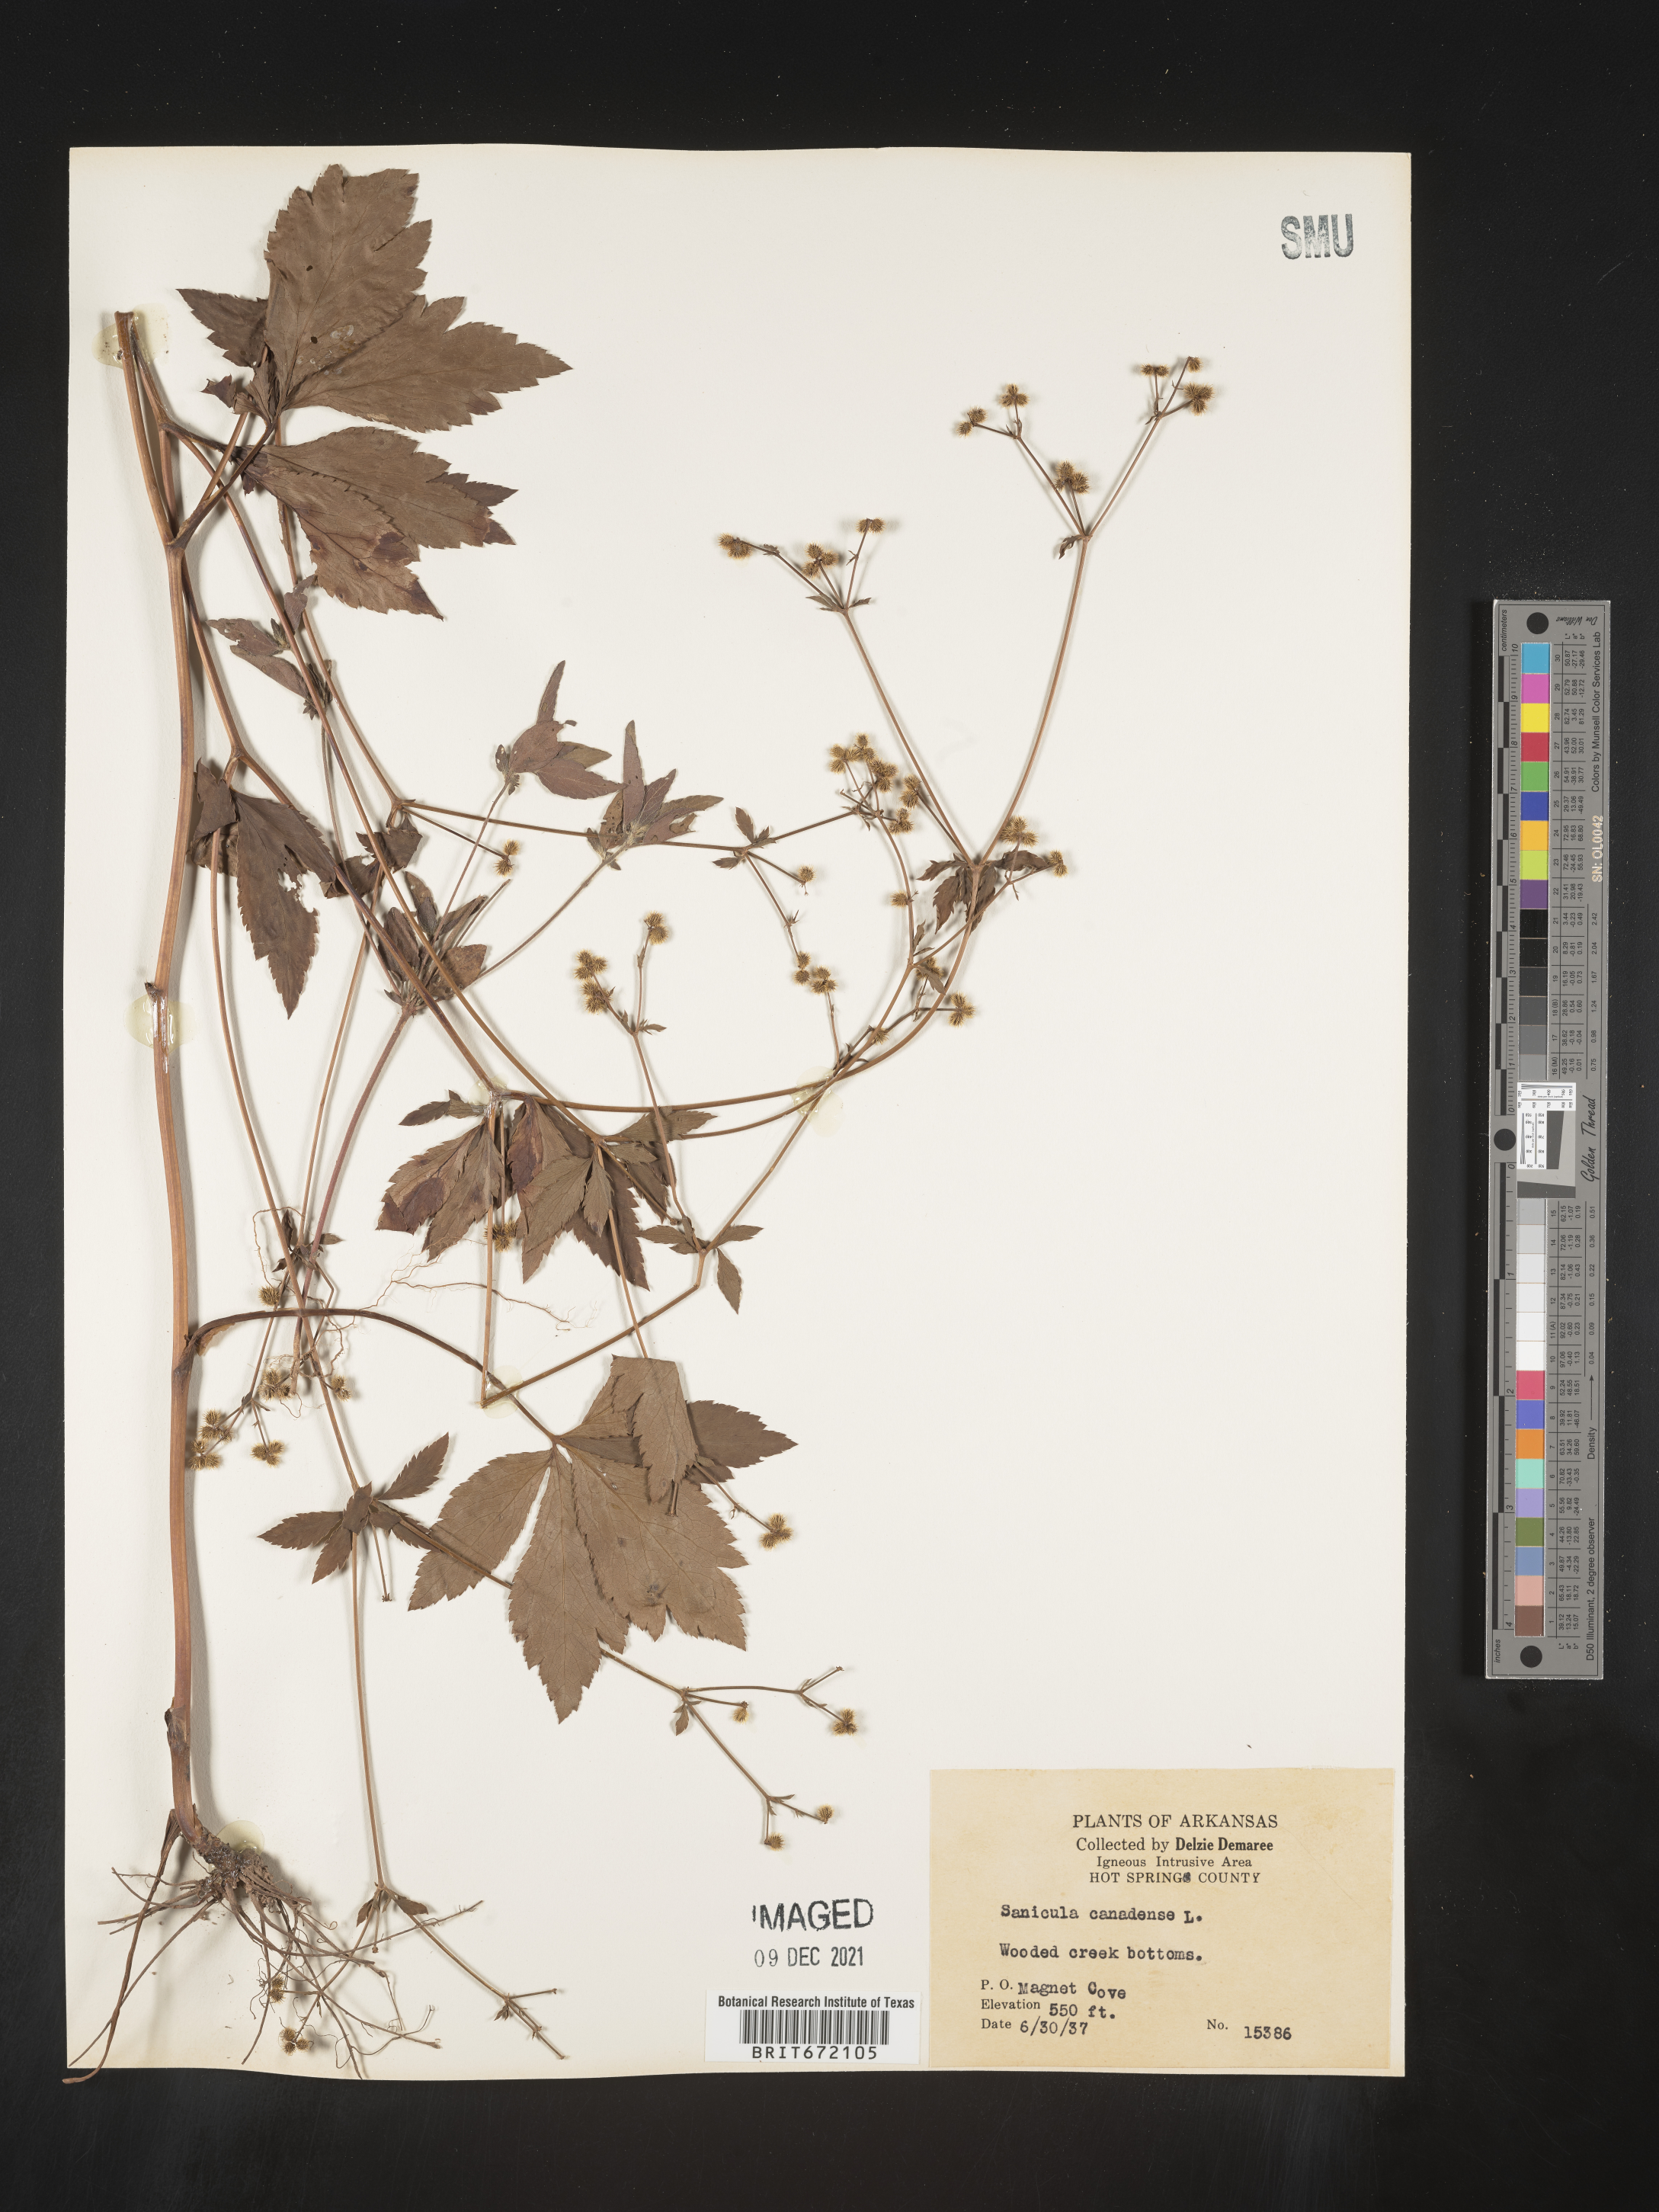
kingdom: Plantae
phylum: Tracheophyta
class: Magnoliopsida
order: Apiales
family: Apiaceae
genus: Sanicula
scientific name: Sanicula canadensis
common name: Canada sanicle
